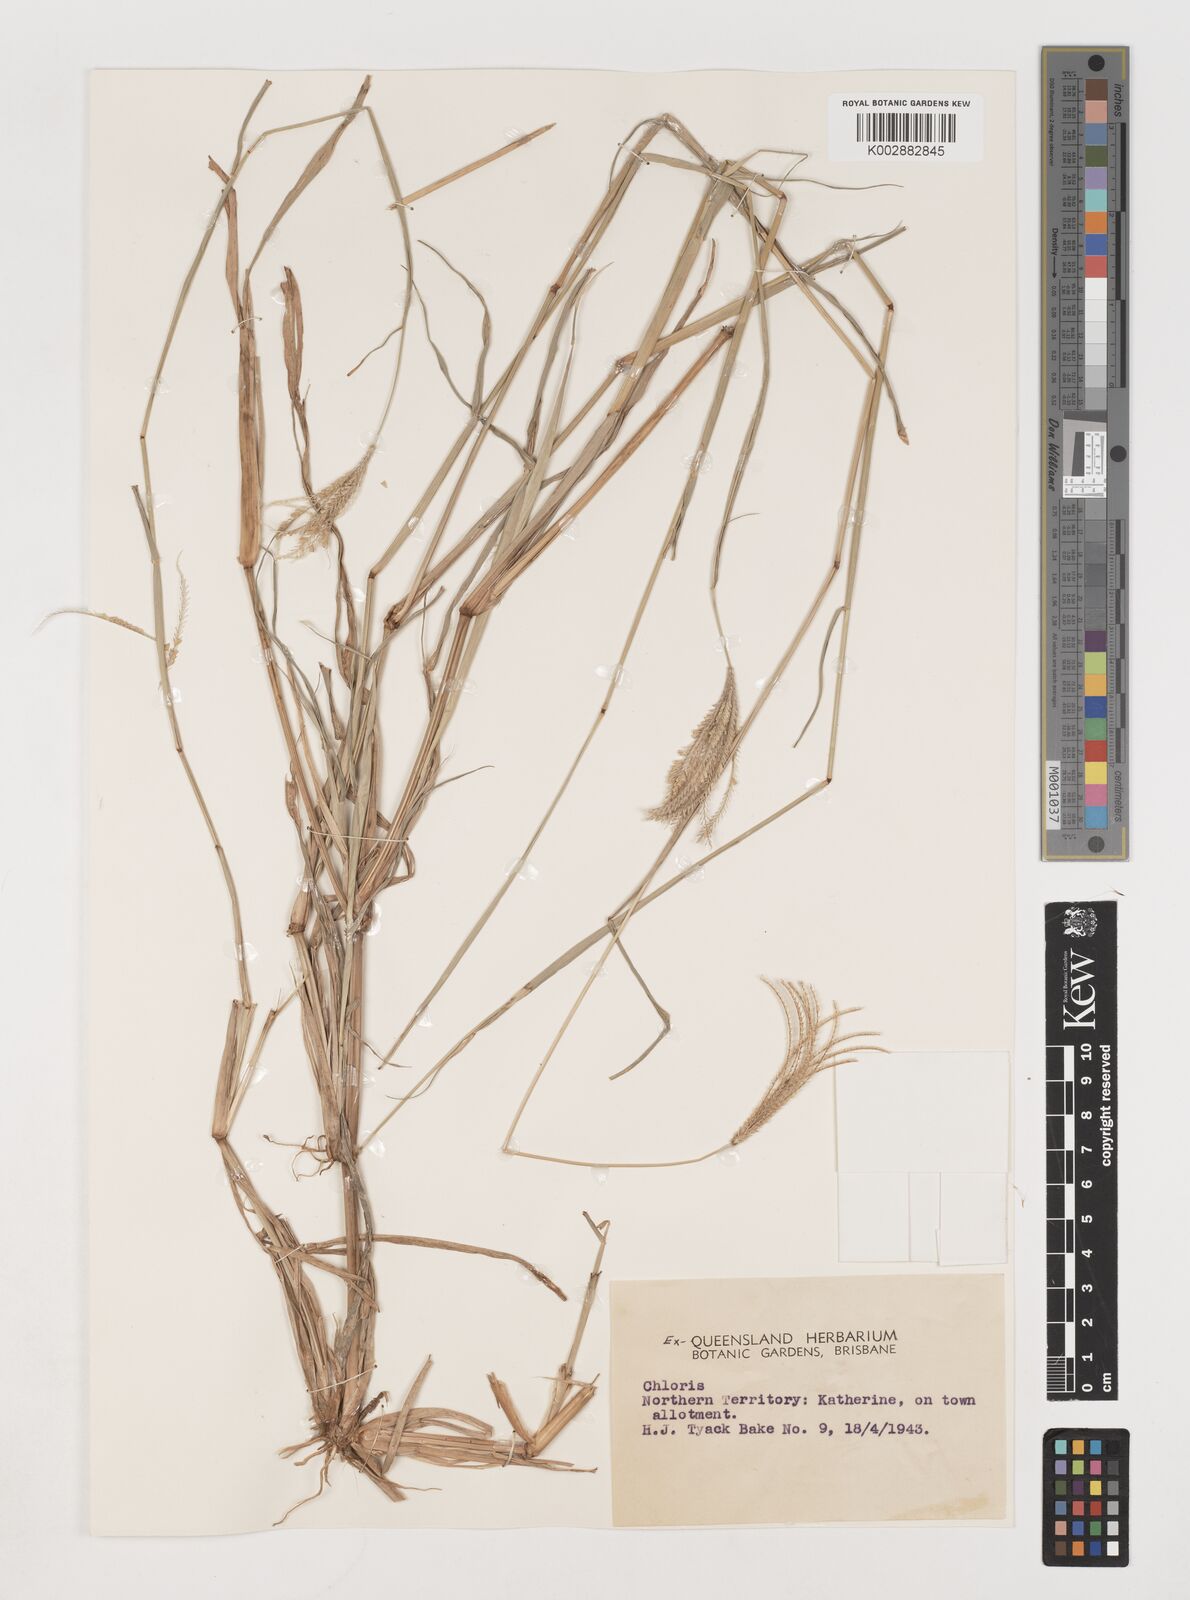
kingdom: Plantae
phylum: Tracheophyta
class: Liliopsida
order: Poales
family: Poaceae
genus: Chloris
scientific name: Chloris
